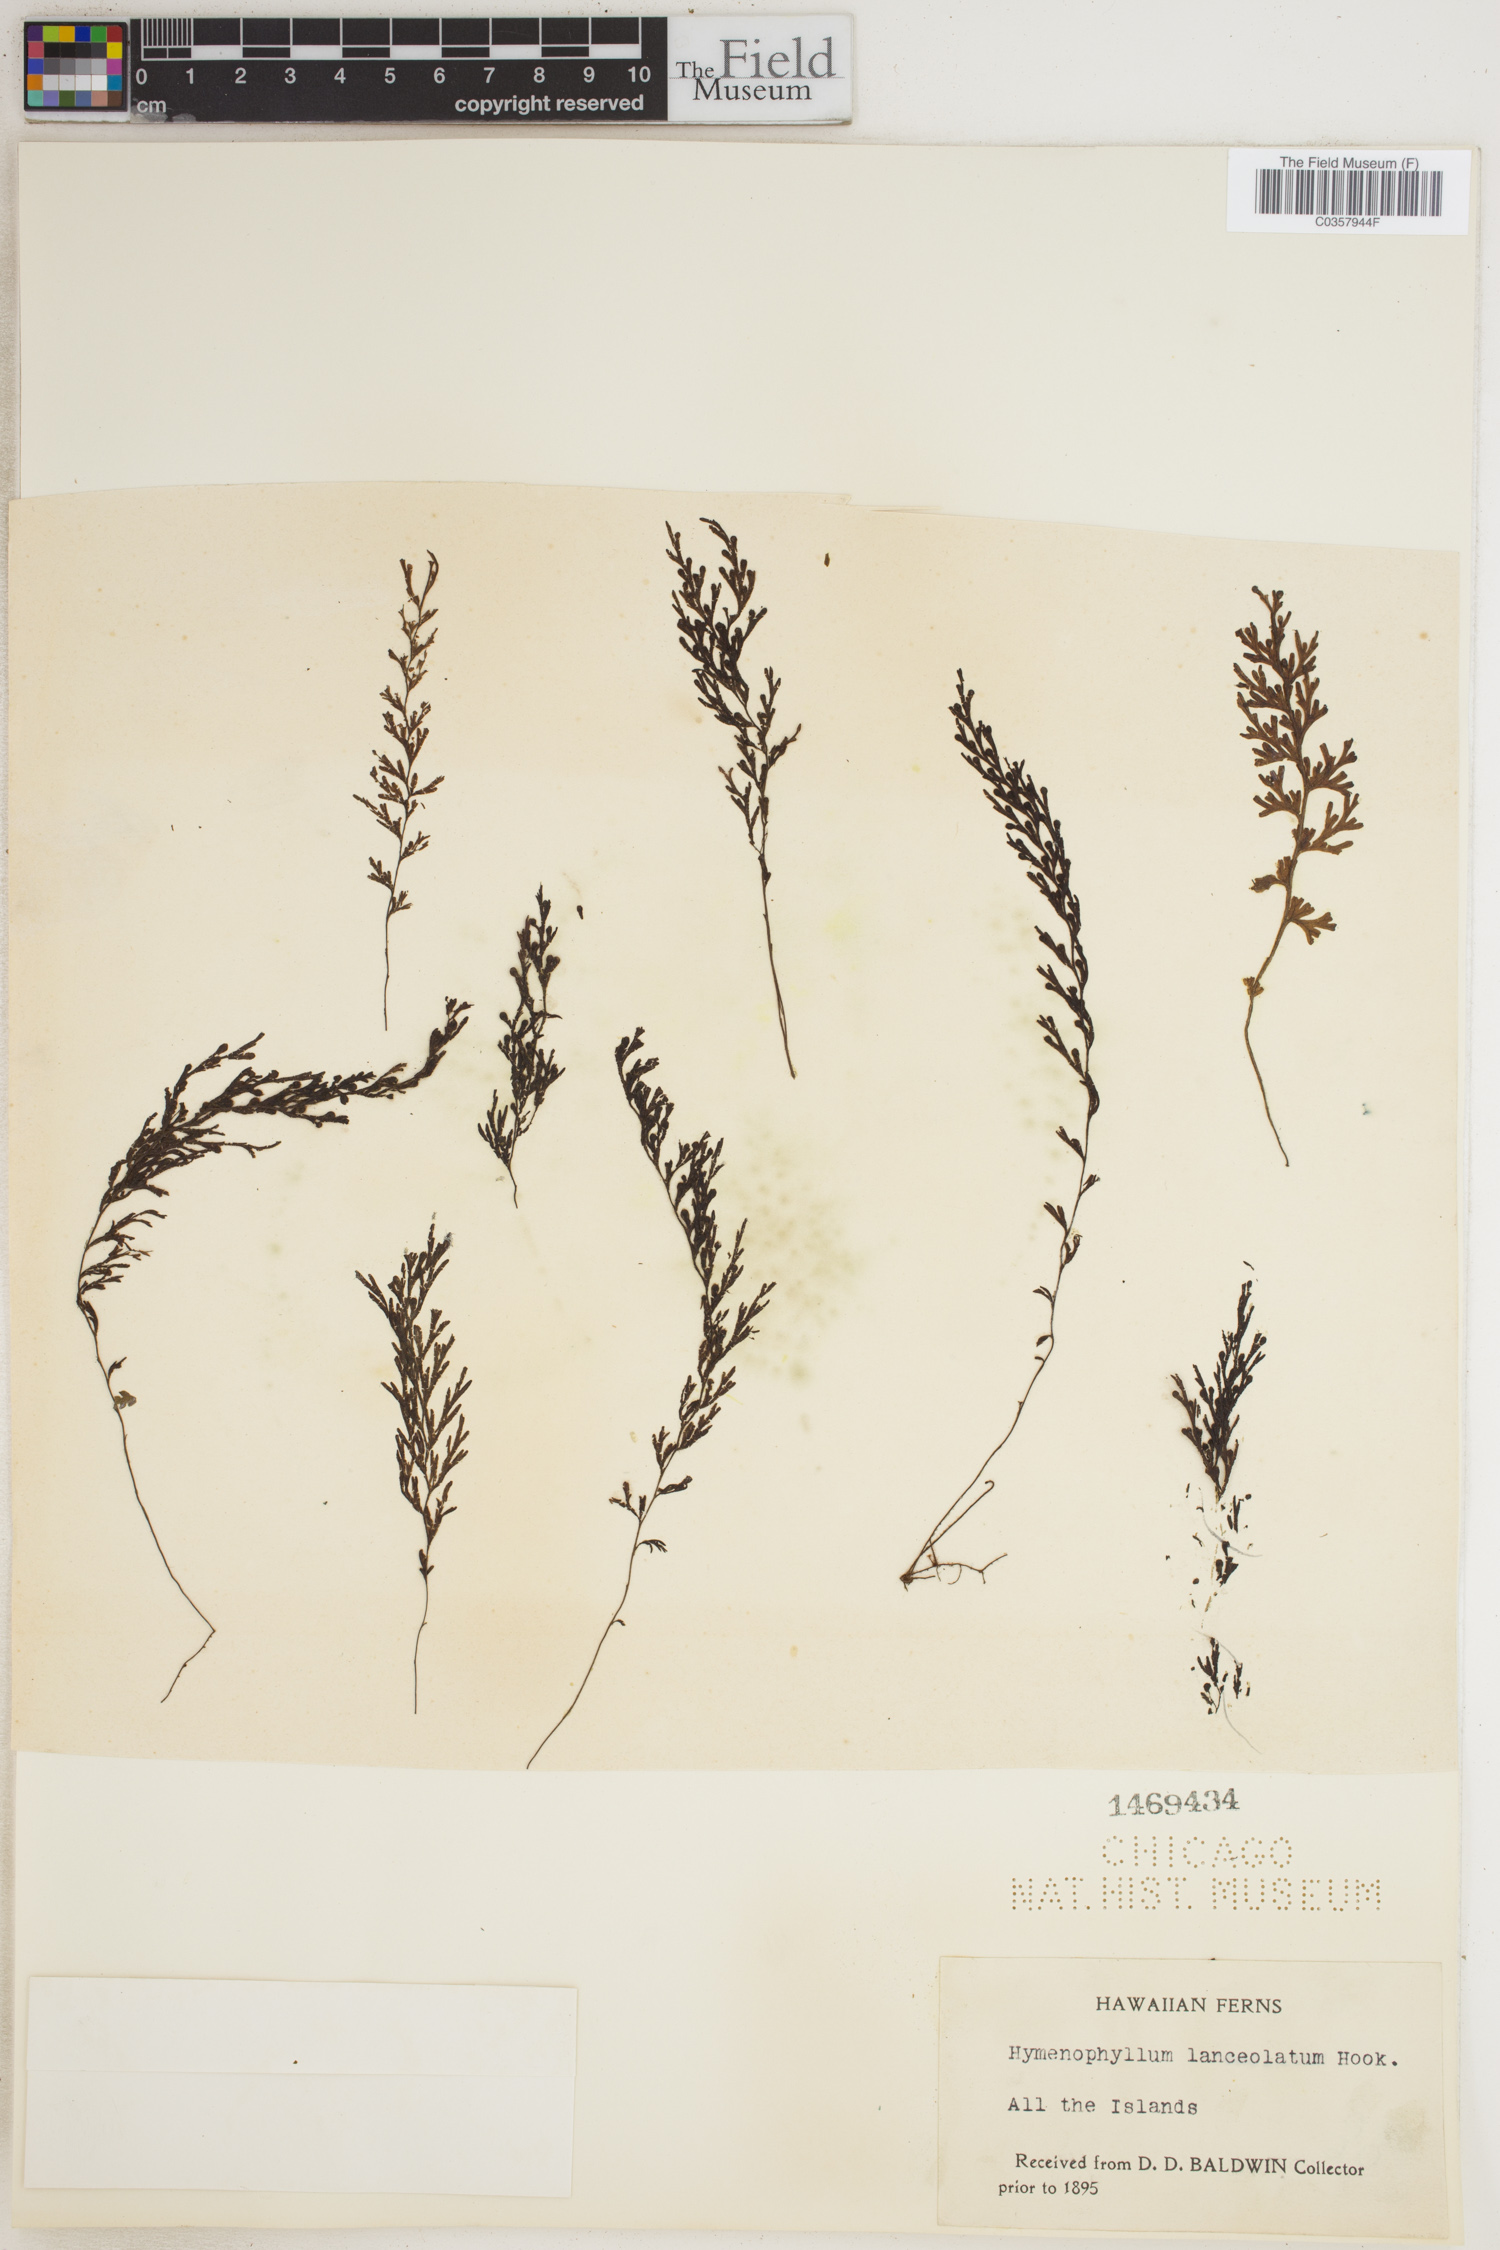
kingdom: Plantae
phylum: Tracheophyta
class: Polypodiopsida
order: Hymenophyllales
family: Hymenophyllaceae
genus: Hymenophyllum
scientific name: Hymenophyllum lanceolatum
